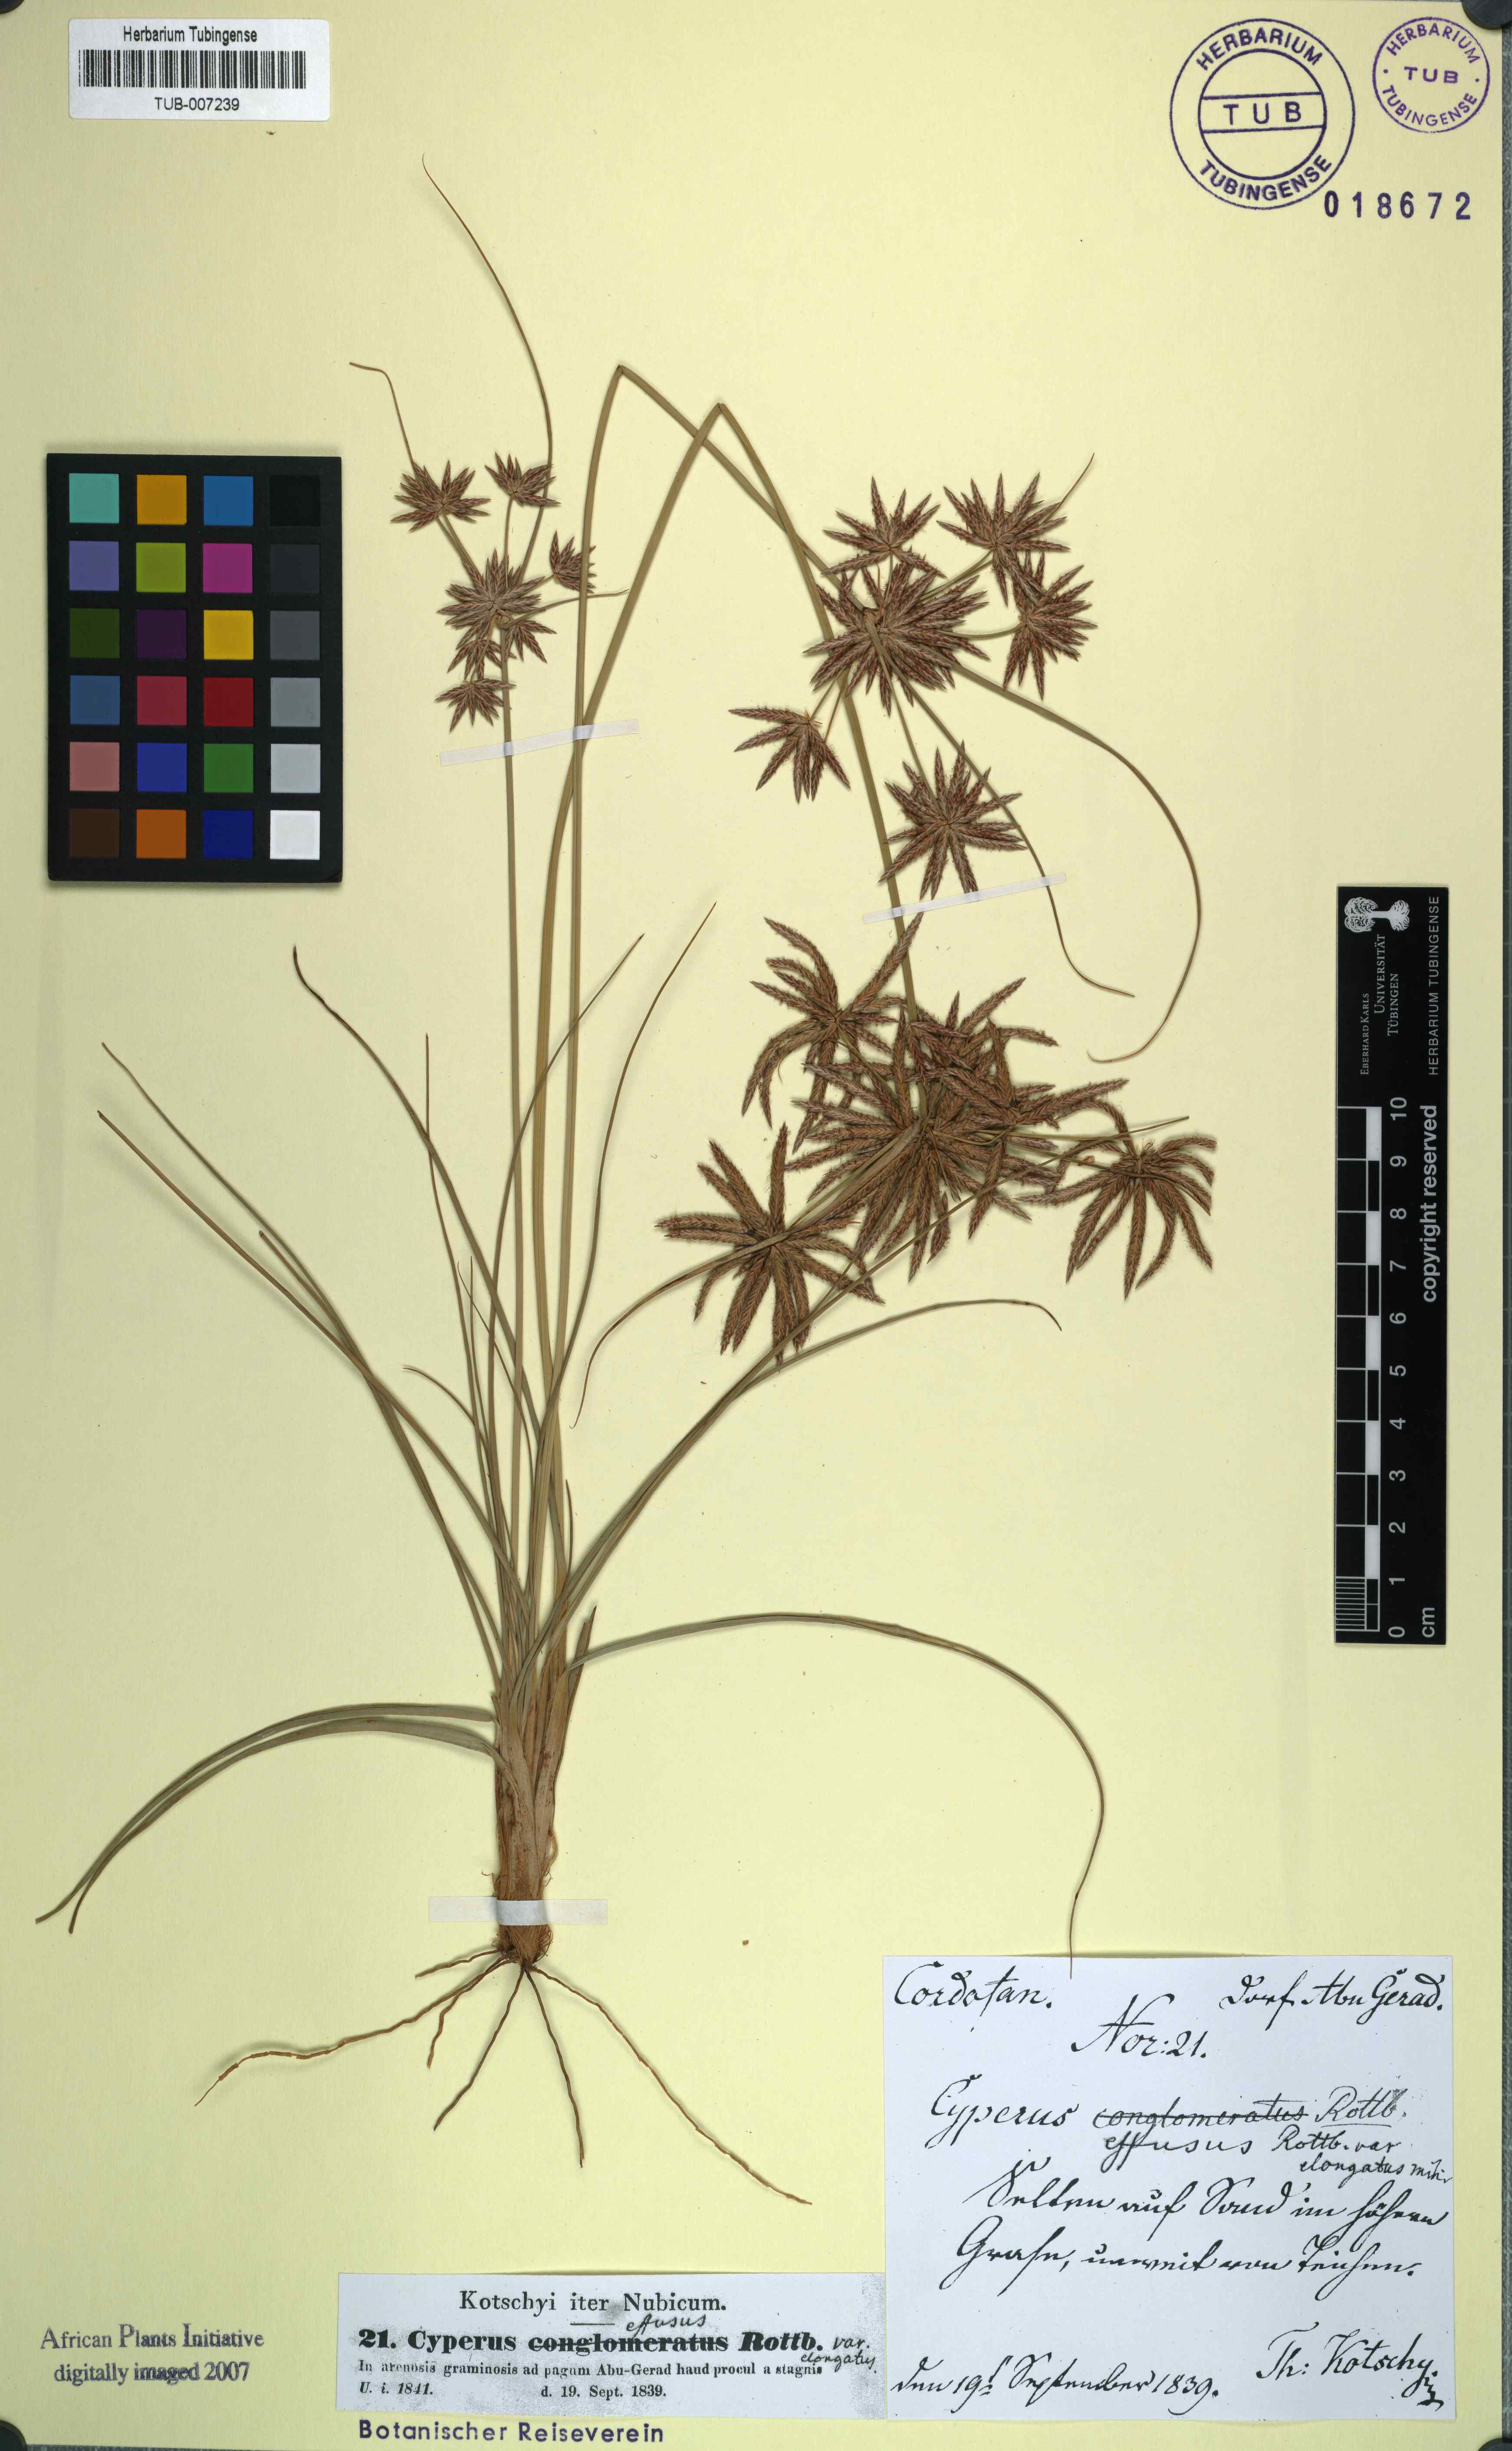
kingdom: Plantae
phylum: Tracheophyta
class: Liliopsida
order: Poales
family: Cyperaceae
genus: Cyperus
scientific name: Cyperus conglomeratus
